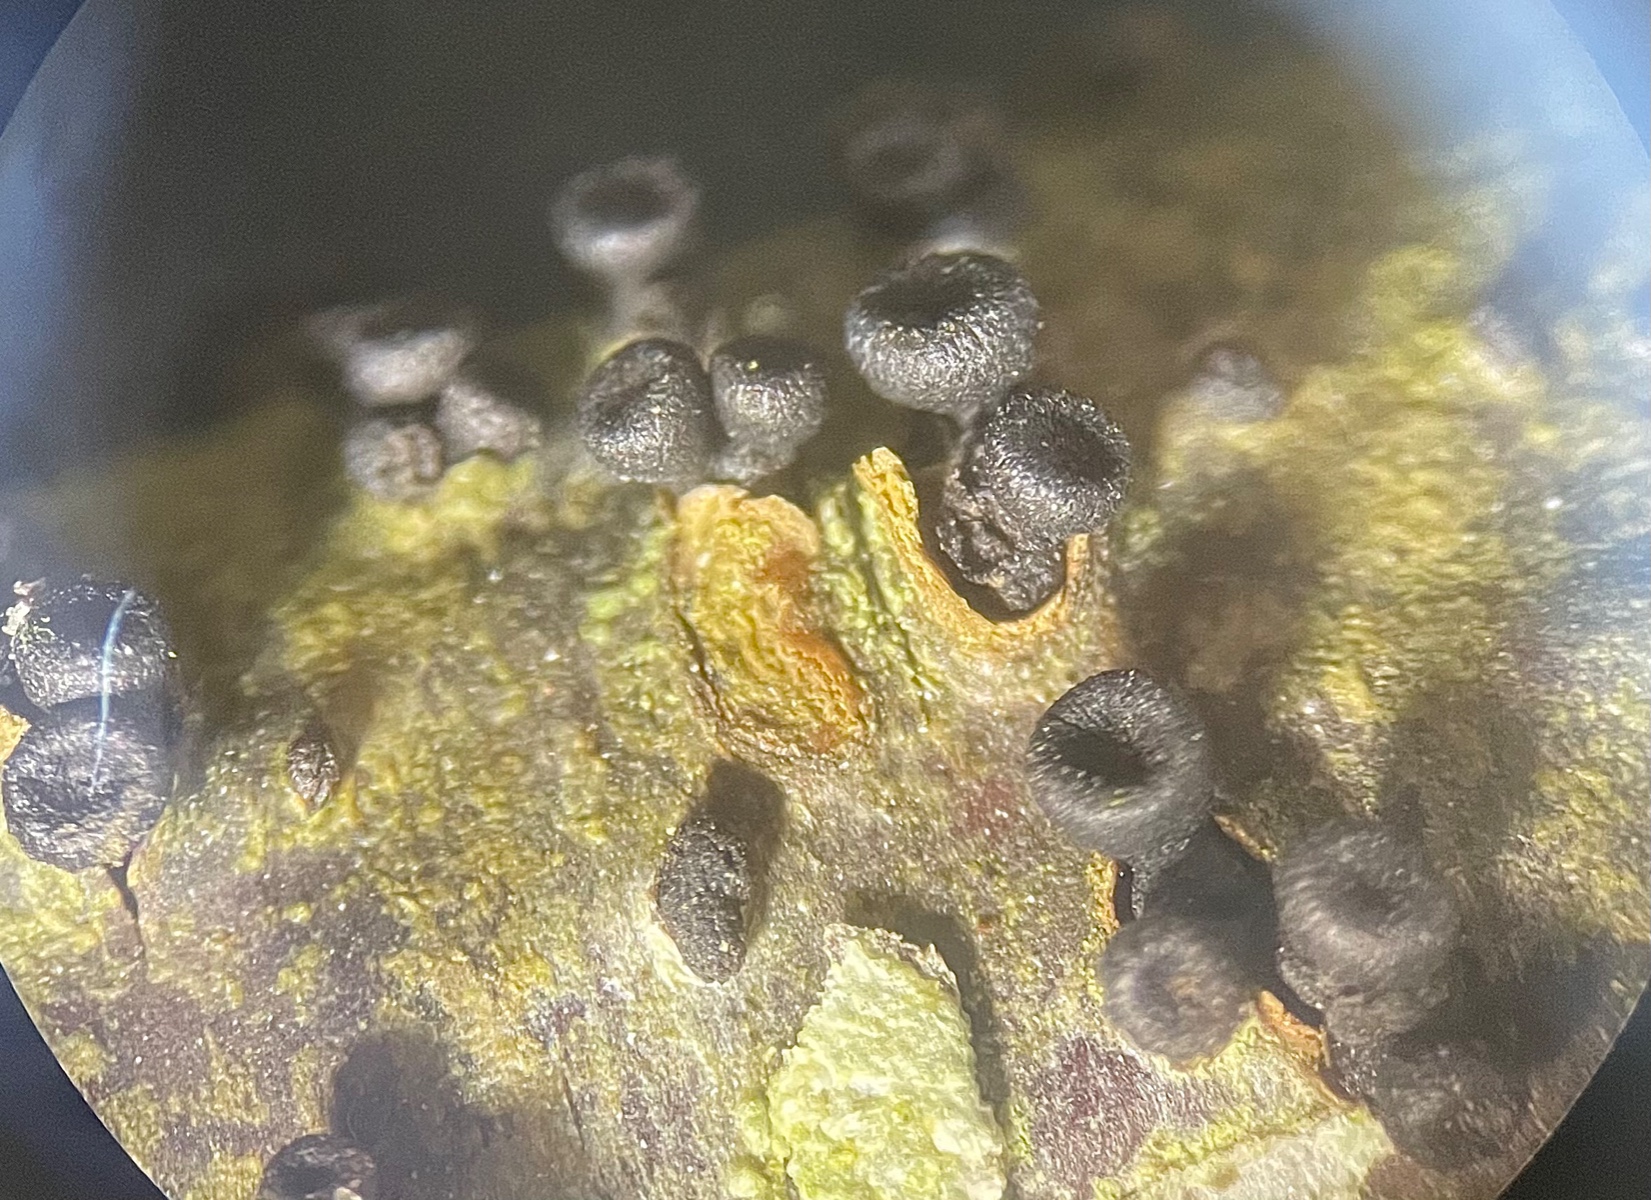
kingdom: Fungi
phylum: Ascomycota
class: Leotiomycetes
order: Helotiales
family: Godroniaceae
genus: Godronia
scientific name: Godronia ribis
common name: ribs-urneskive
